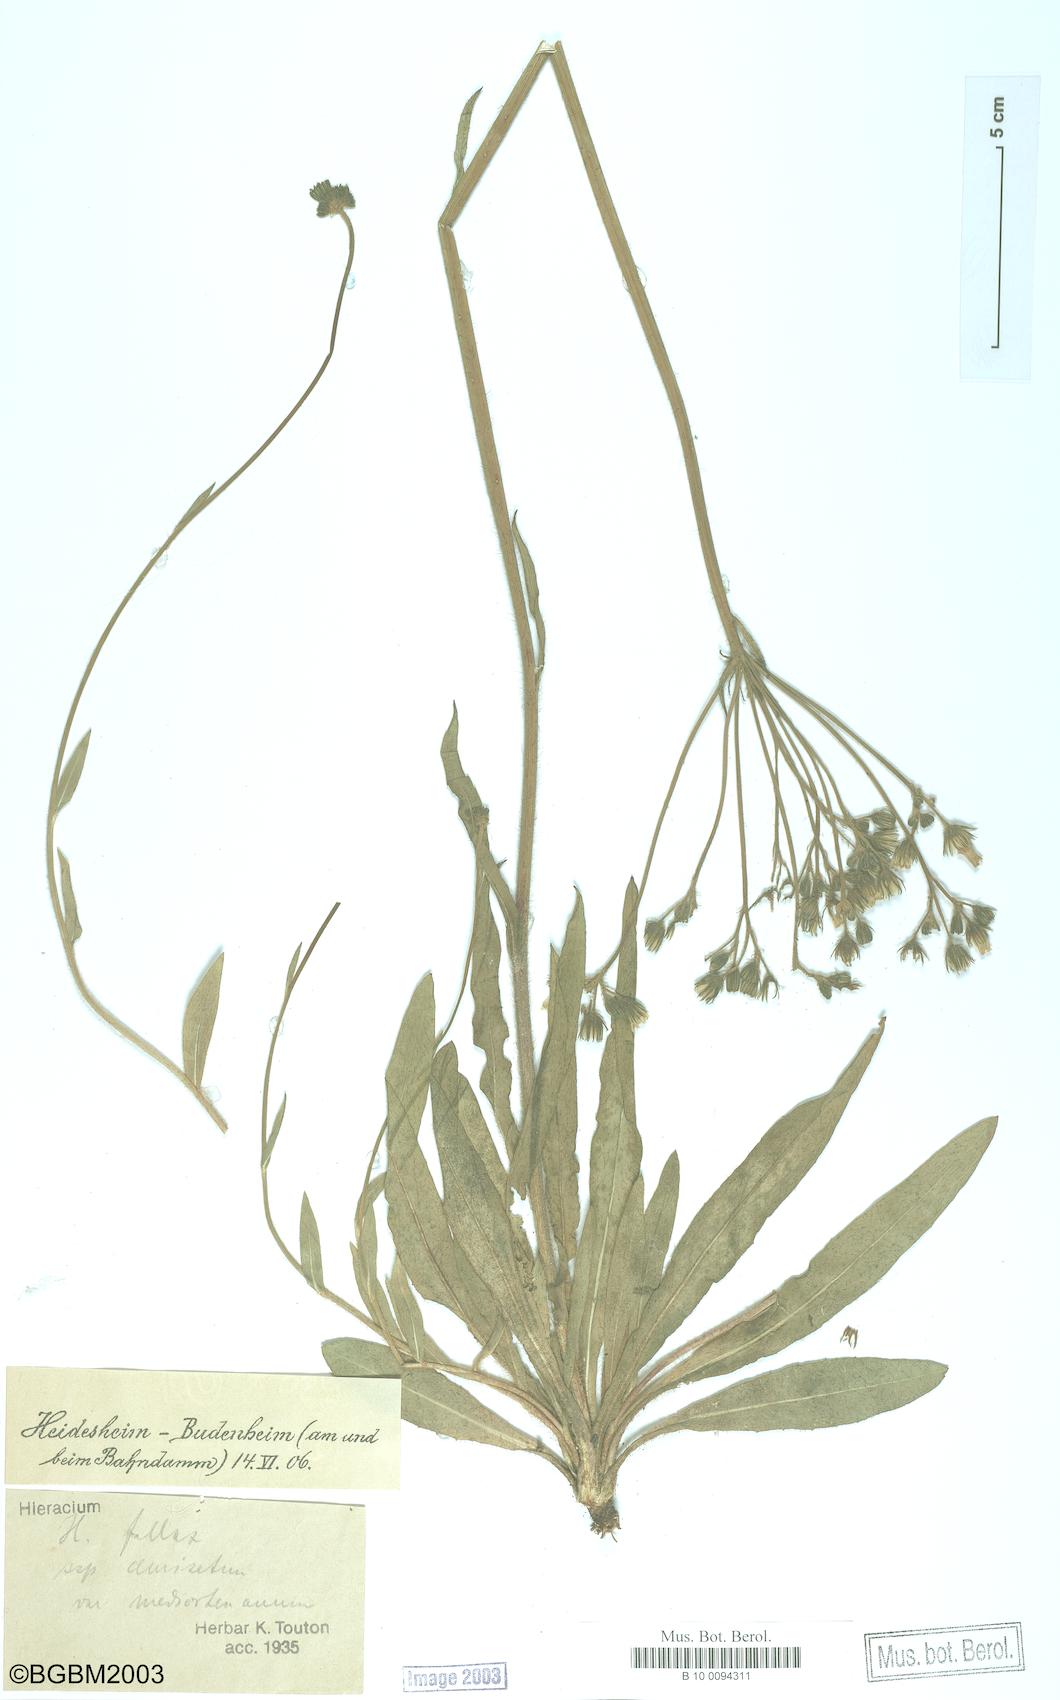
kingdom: Plantae
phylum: Tracheophyta
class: Magnoliopsida
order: Asterales
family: Asteraceae
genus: Hieracium
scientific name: Hieracium fallax
